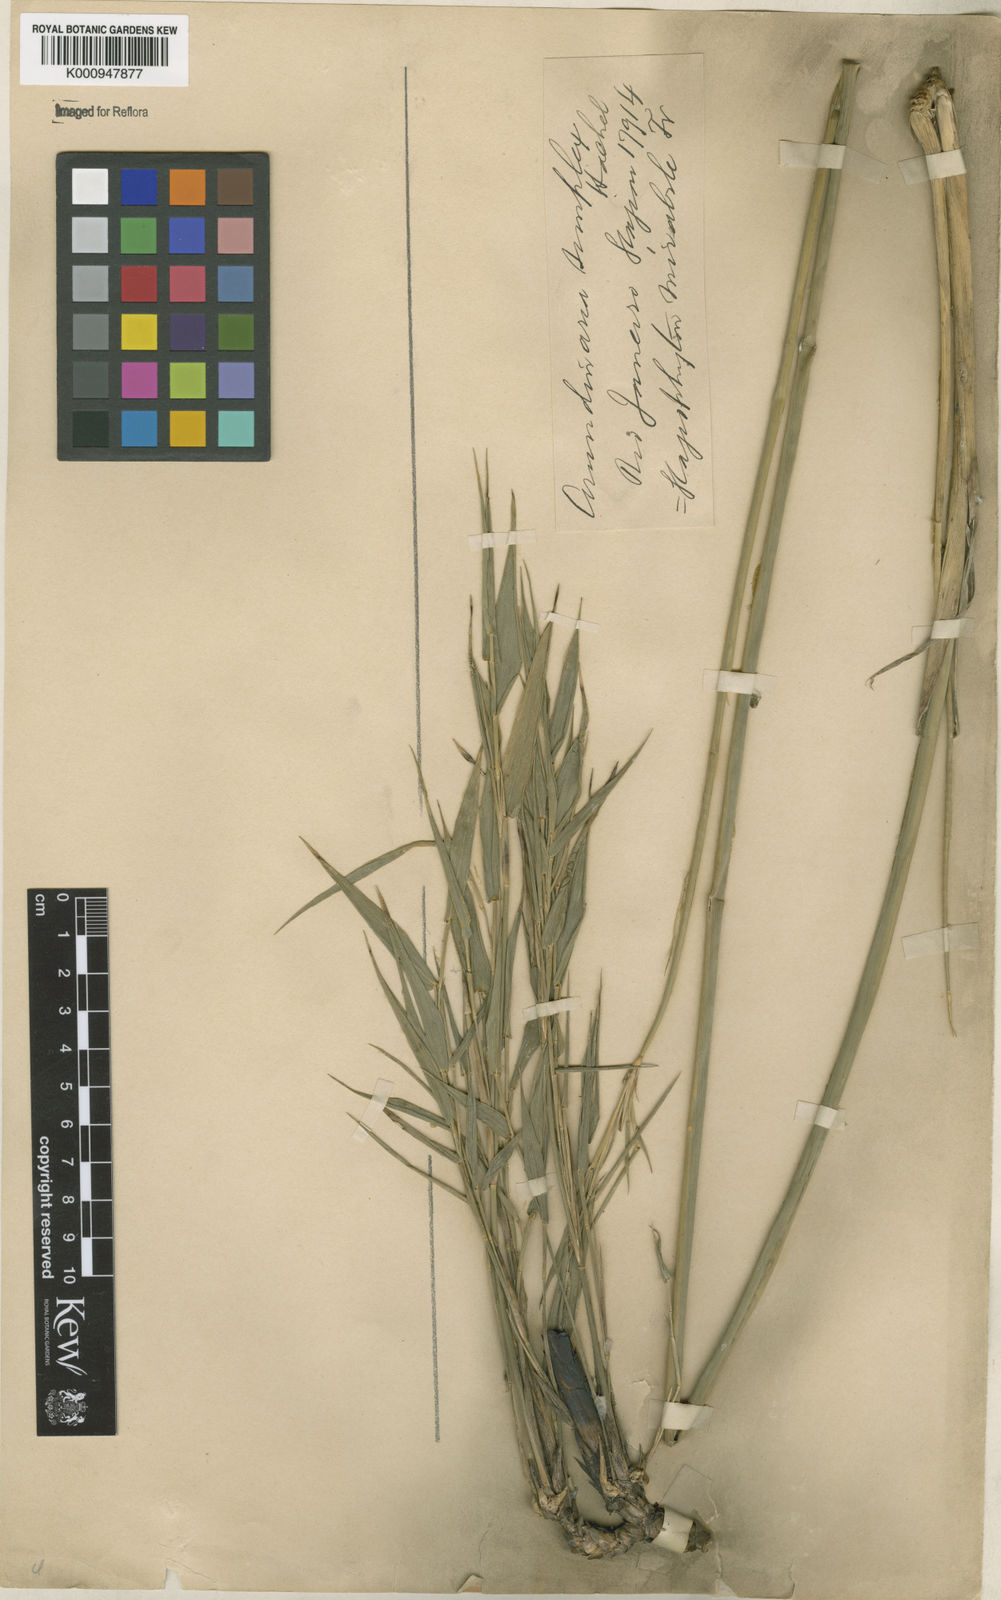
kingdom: Plantae
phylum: Tracheophyta
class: Liliopsida
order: Poales
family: Poaceae
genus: Glaziophyton
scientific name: Glaziophyton mirabile
